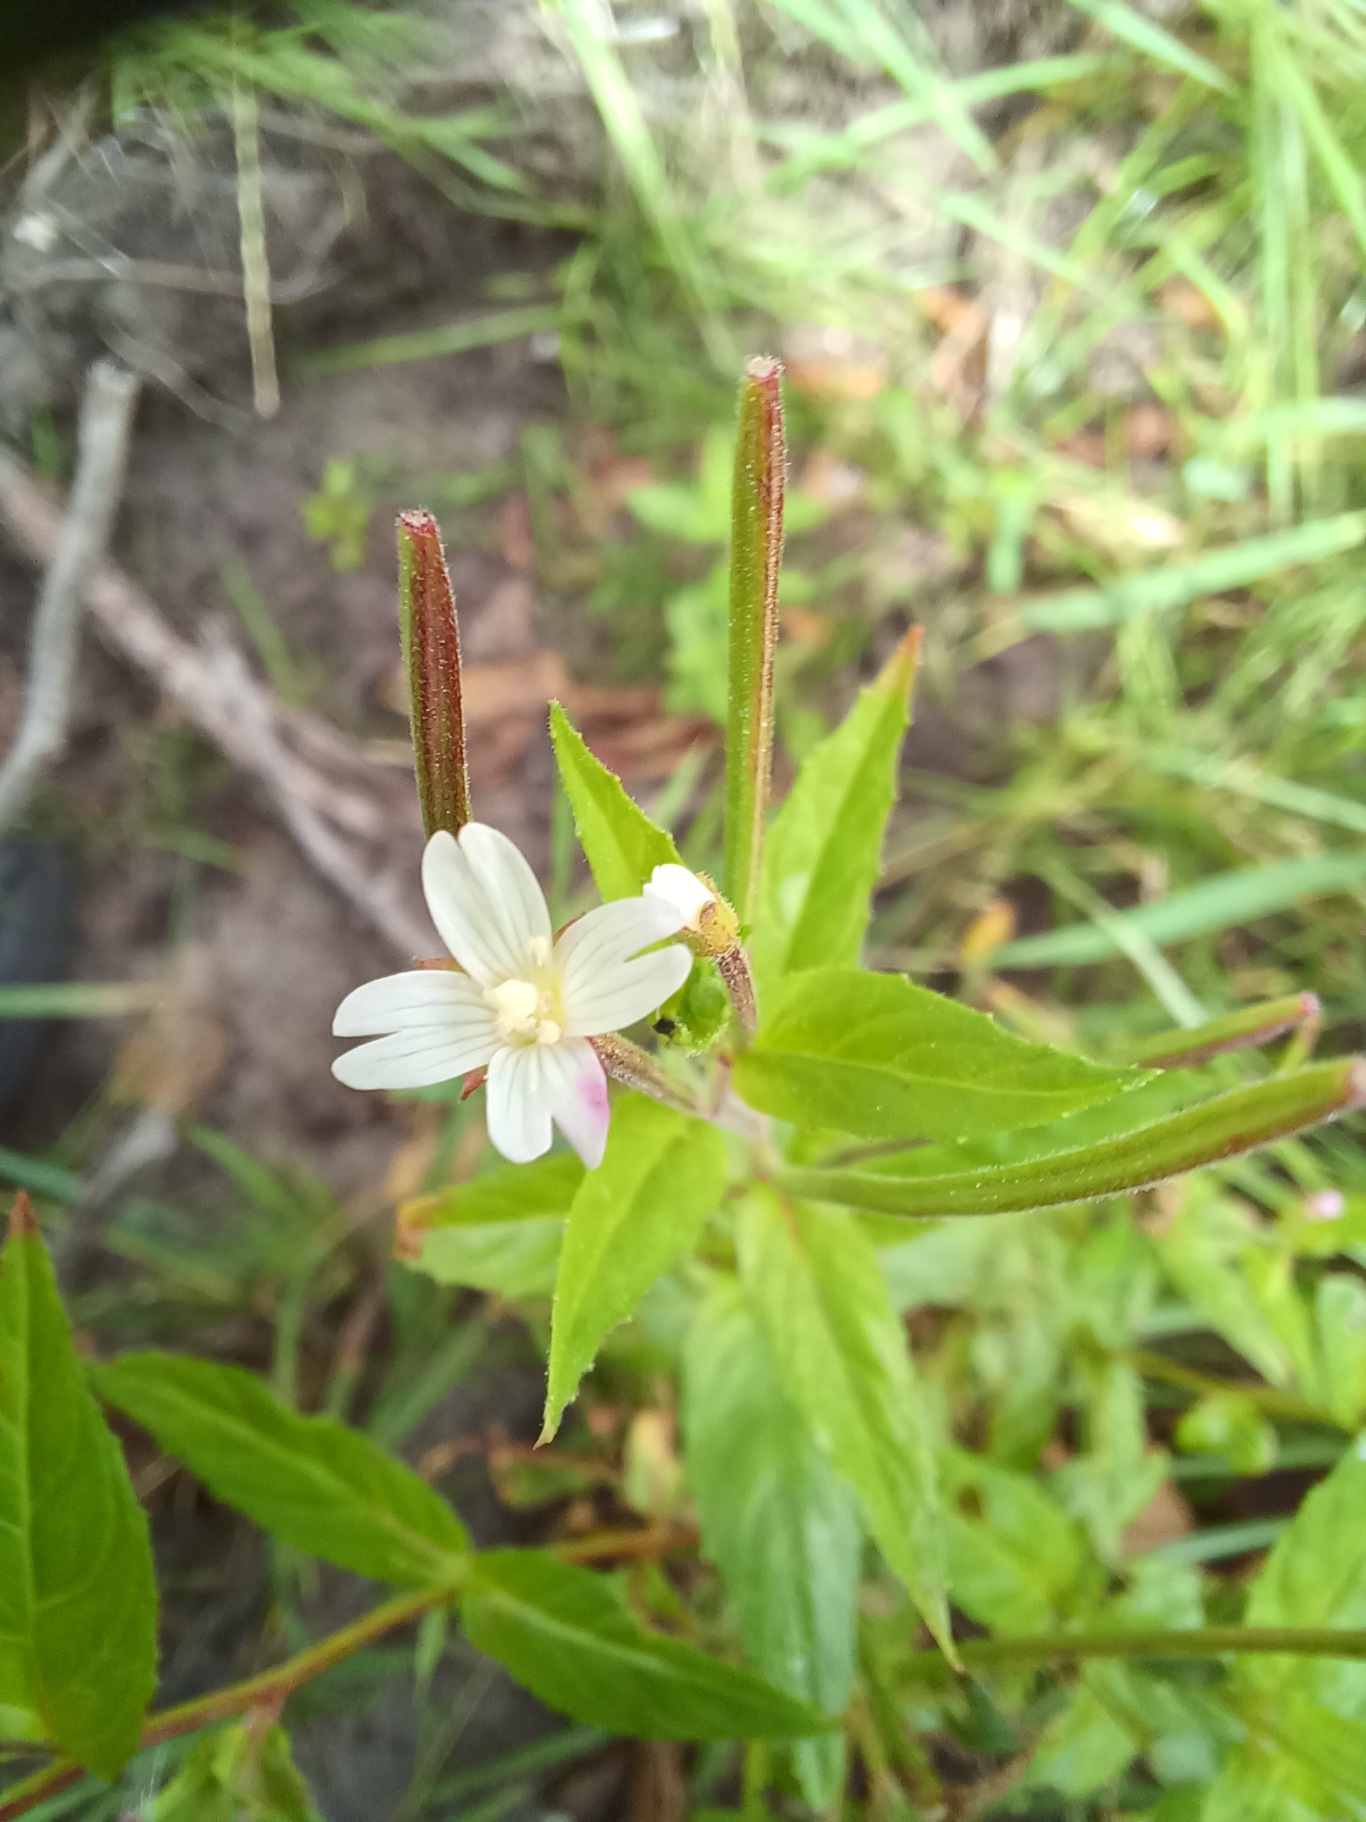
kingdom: Plantae
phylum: Tracheophyta
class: Magnoliopsida
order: Myrtales
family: Onagraceae
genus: Epilobium
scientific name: Epilobium ciliatum
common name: Hvid dueurt
